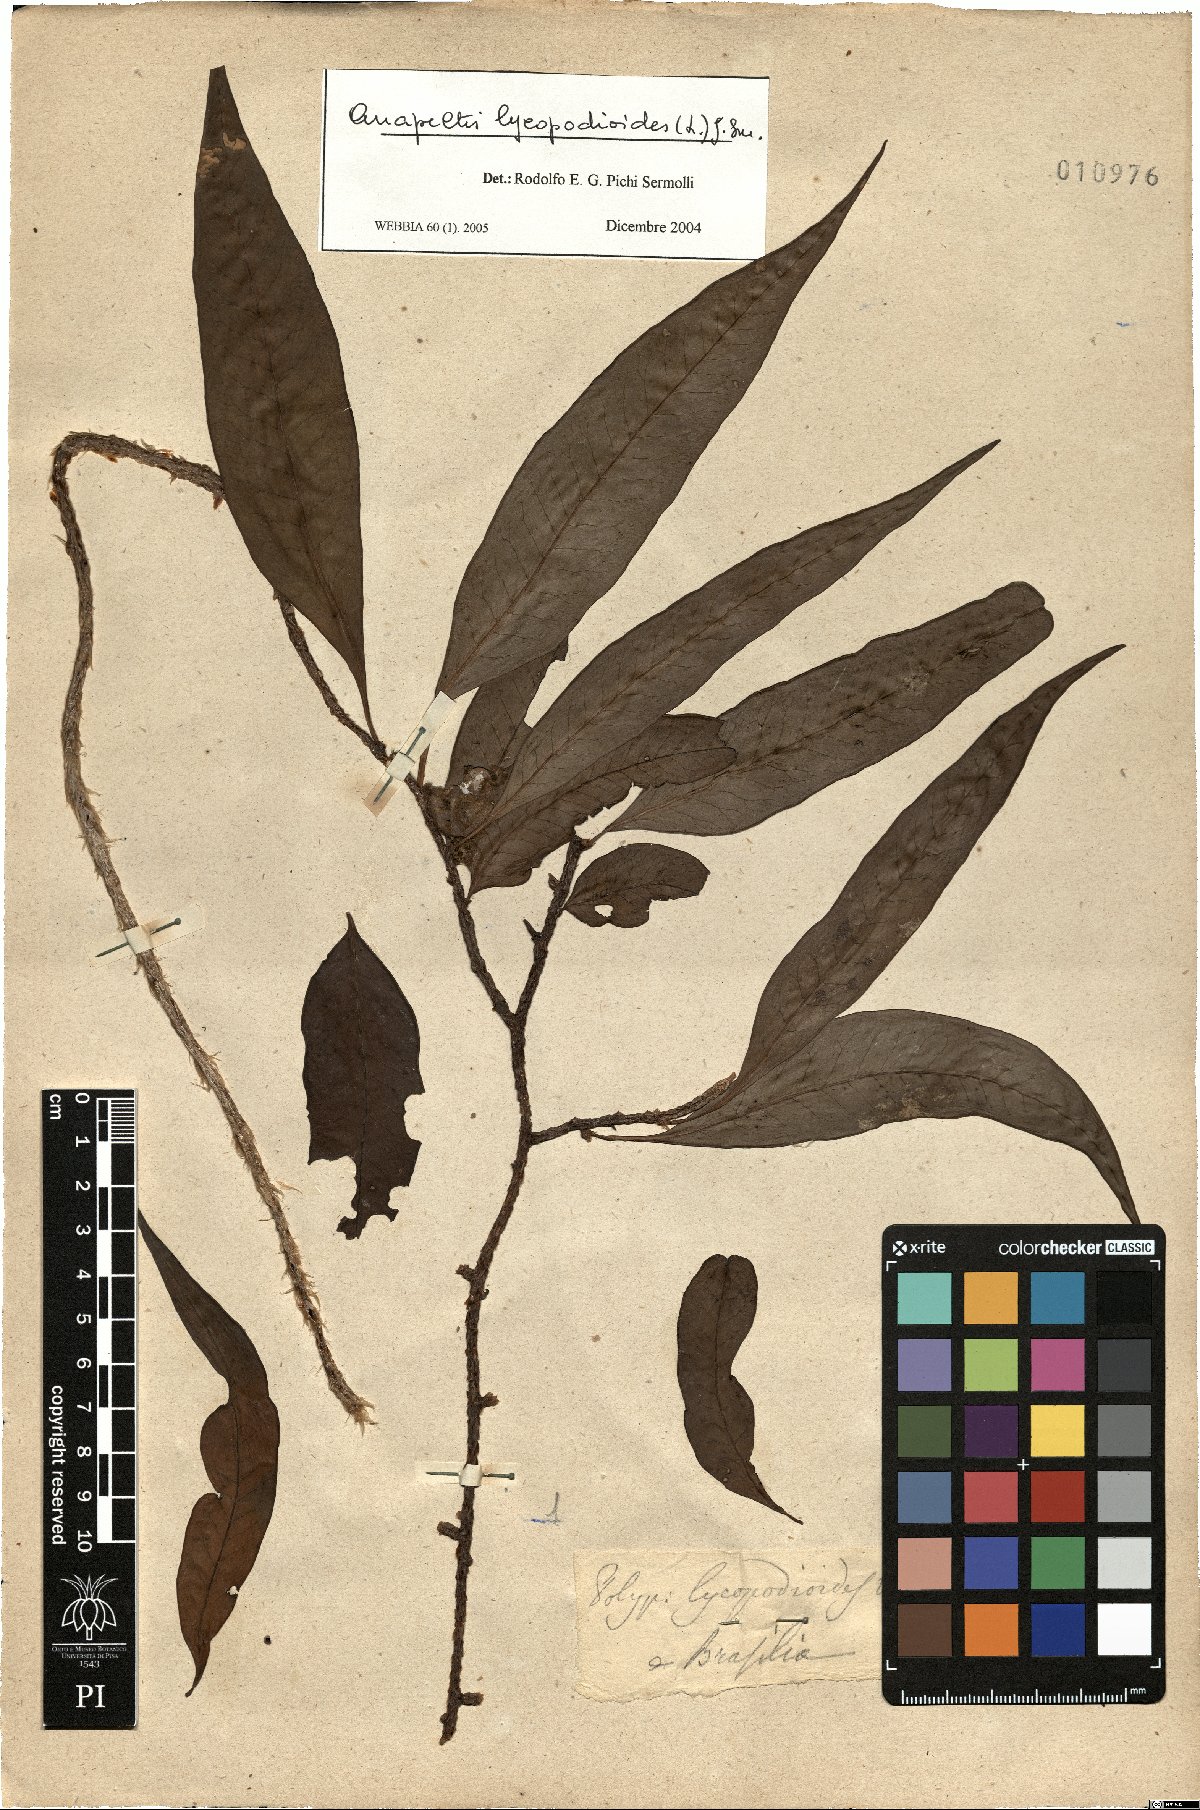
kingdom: Plantae
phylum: Tracheophyta
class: Polypodiopsida
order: Polypodiales
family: Polypodiaceae
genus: Microgramma
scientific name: Microgramma lycopodioides
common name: Bastard catclaw
